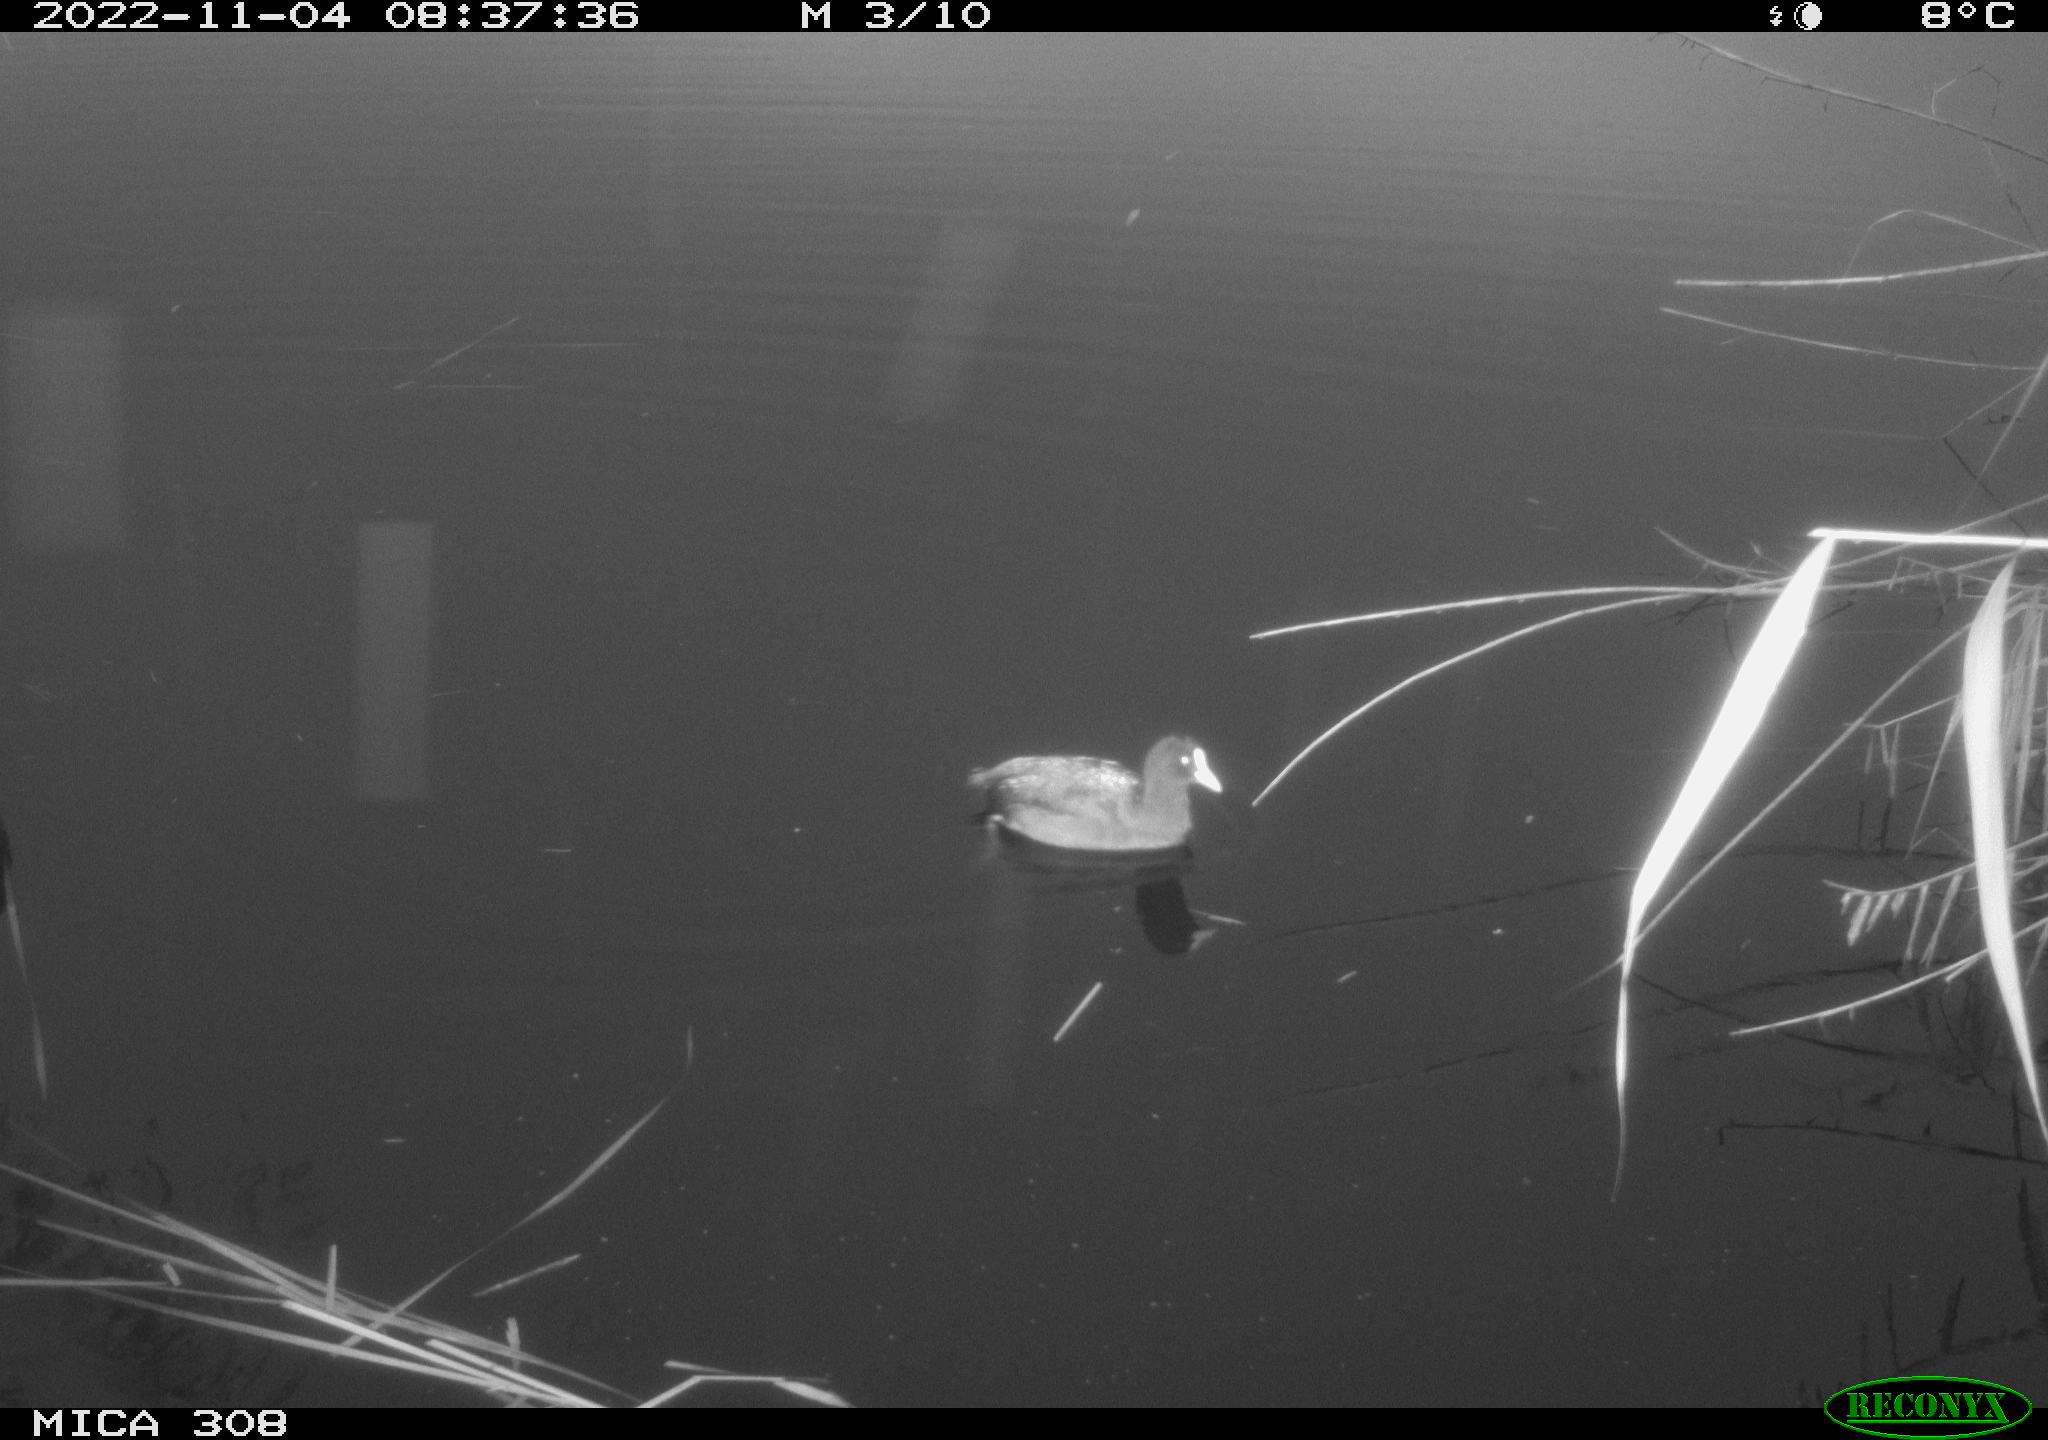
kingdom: Animalia
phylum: Chordata
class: Aves
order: Gruiformes
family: Rallidae
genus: Fulica
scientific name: Fulica atra
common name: Eurasian coot
